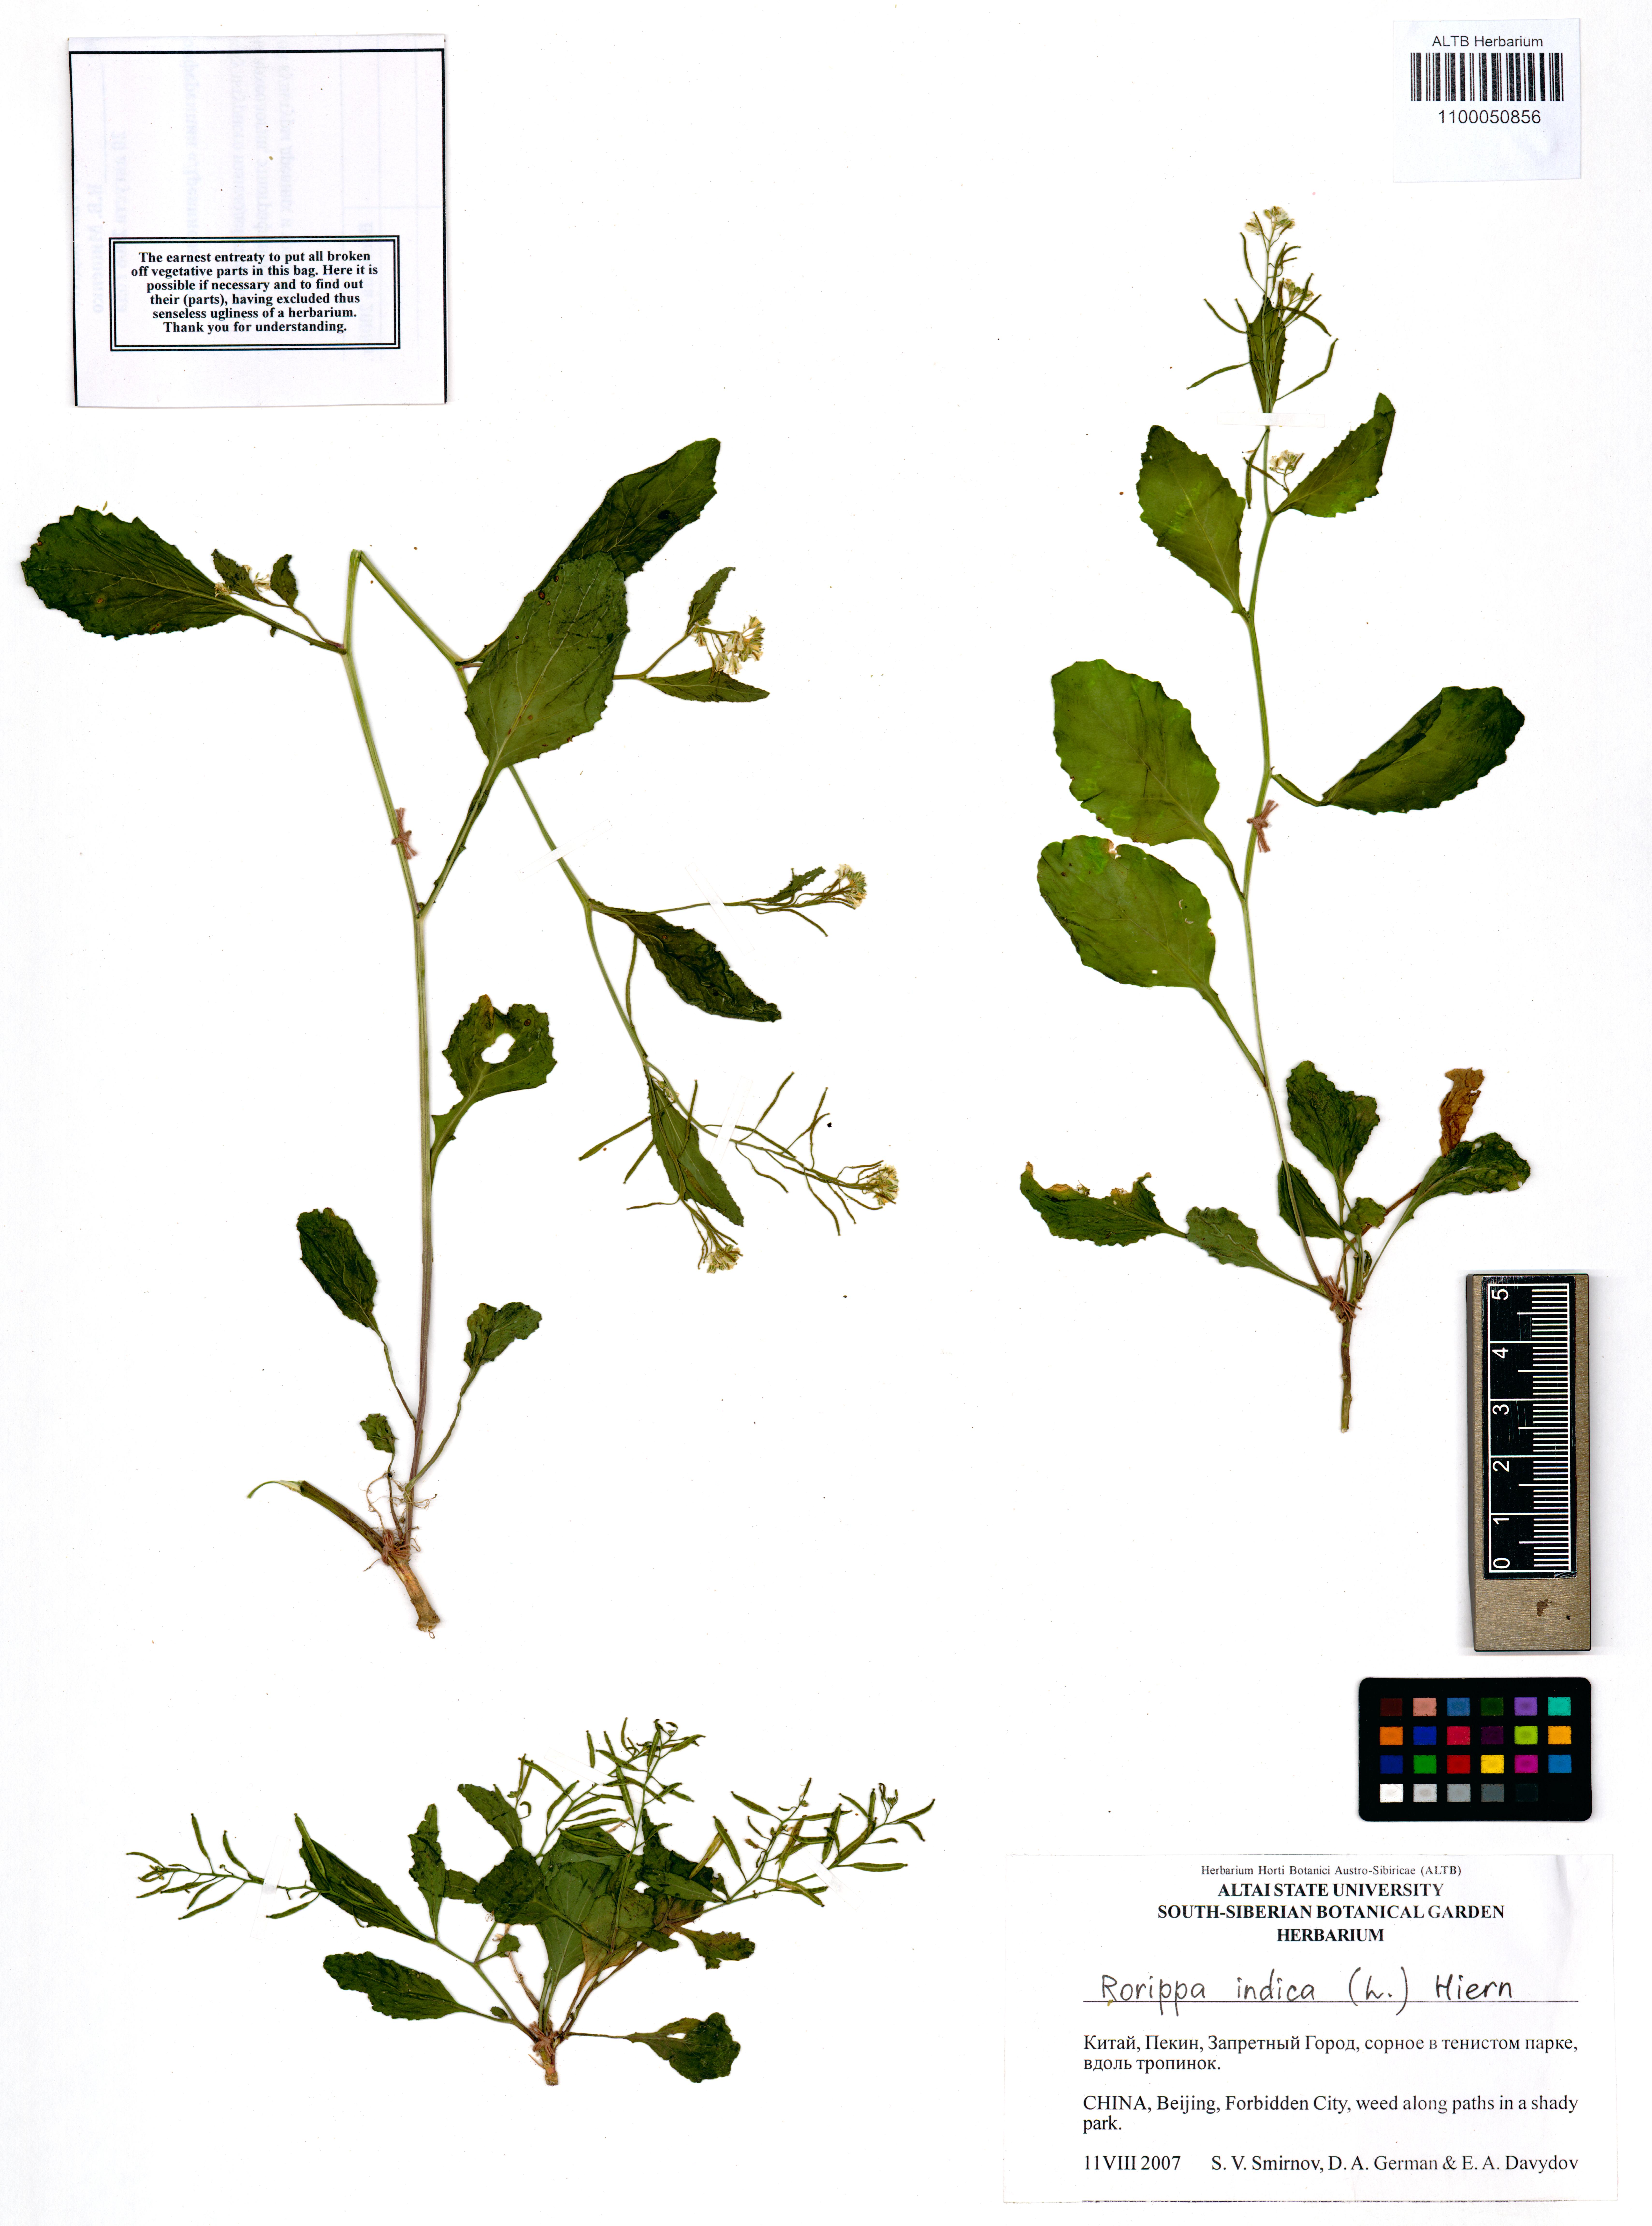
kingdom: Plantae
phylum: Tracheophyta
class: Magnoliopsida
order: Brassicales
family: Brassicaceae
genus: Rorippa
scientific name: Rorippa indica
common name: Variableleaf yellowcress
